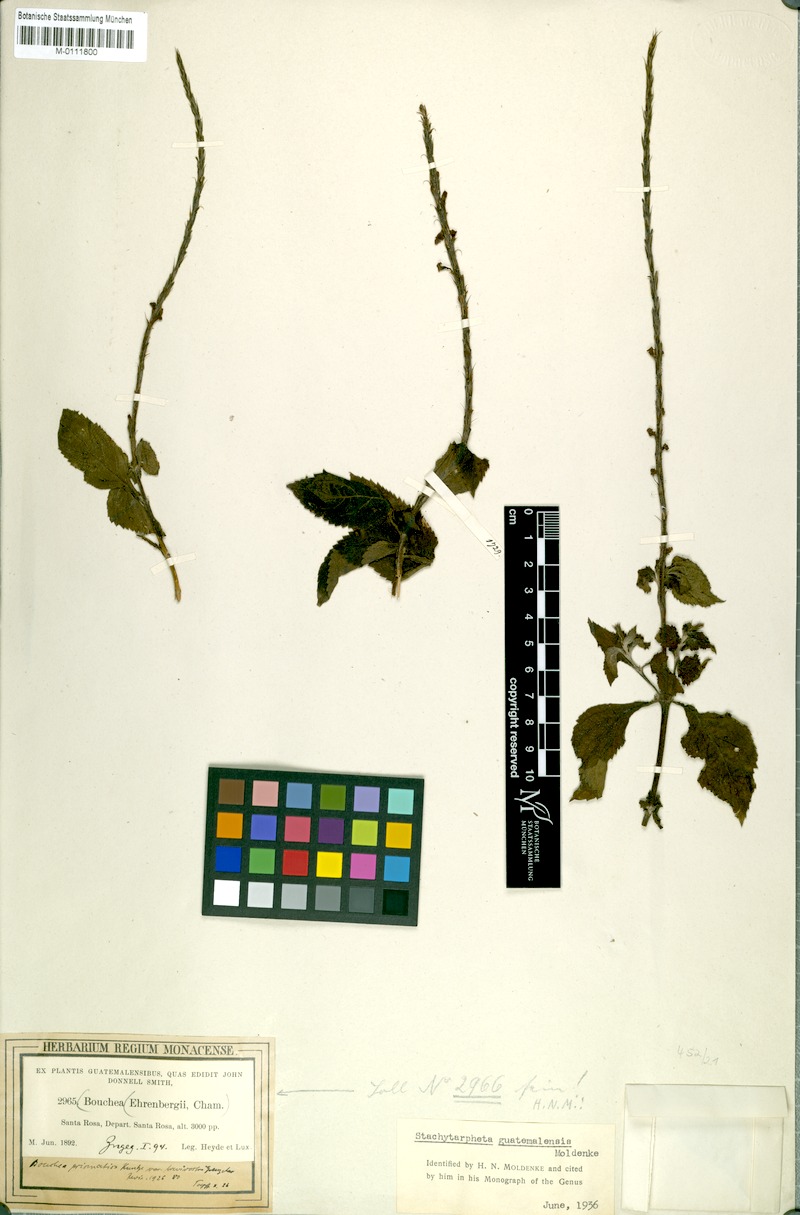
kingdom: Plantae
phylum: Tracheophyta
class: Magnoliopsida
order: Lamiales
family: Verbenaceae
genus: Stachytarpheta
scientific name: Stachytarpheta cayennensis
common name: Cayenne porterweed
